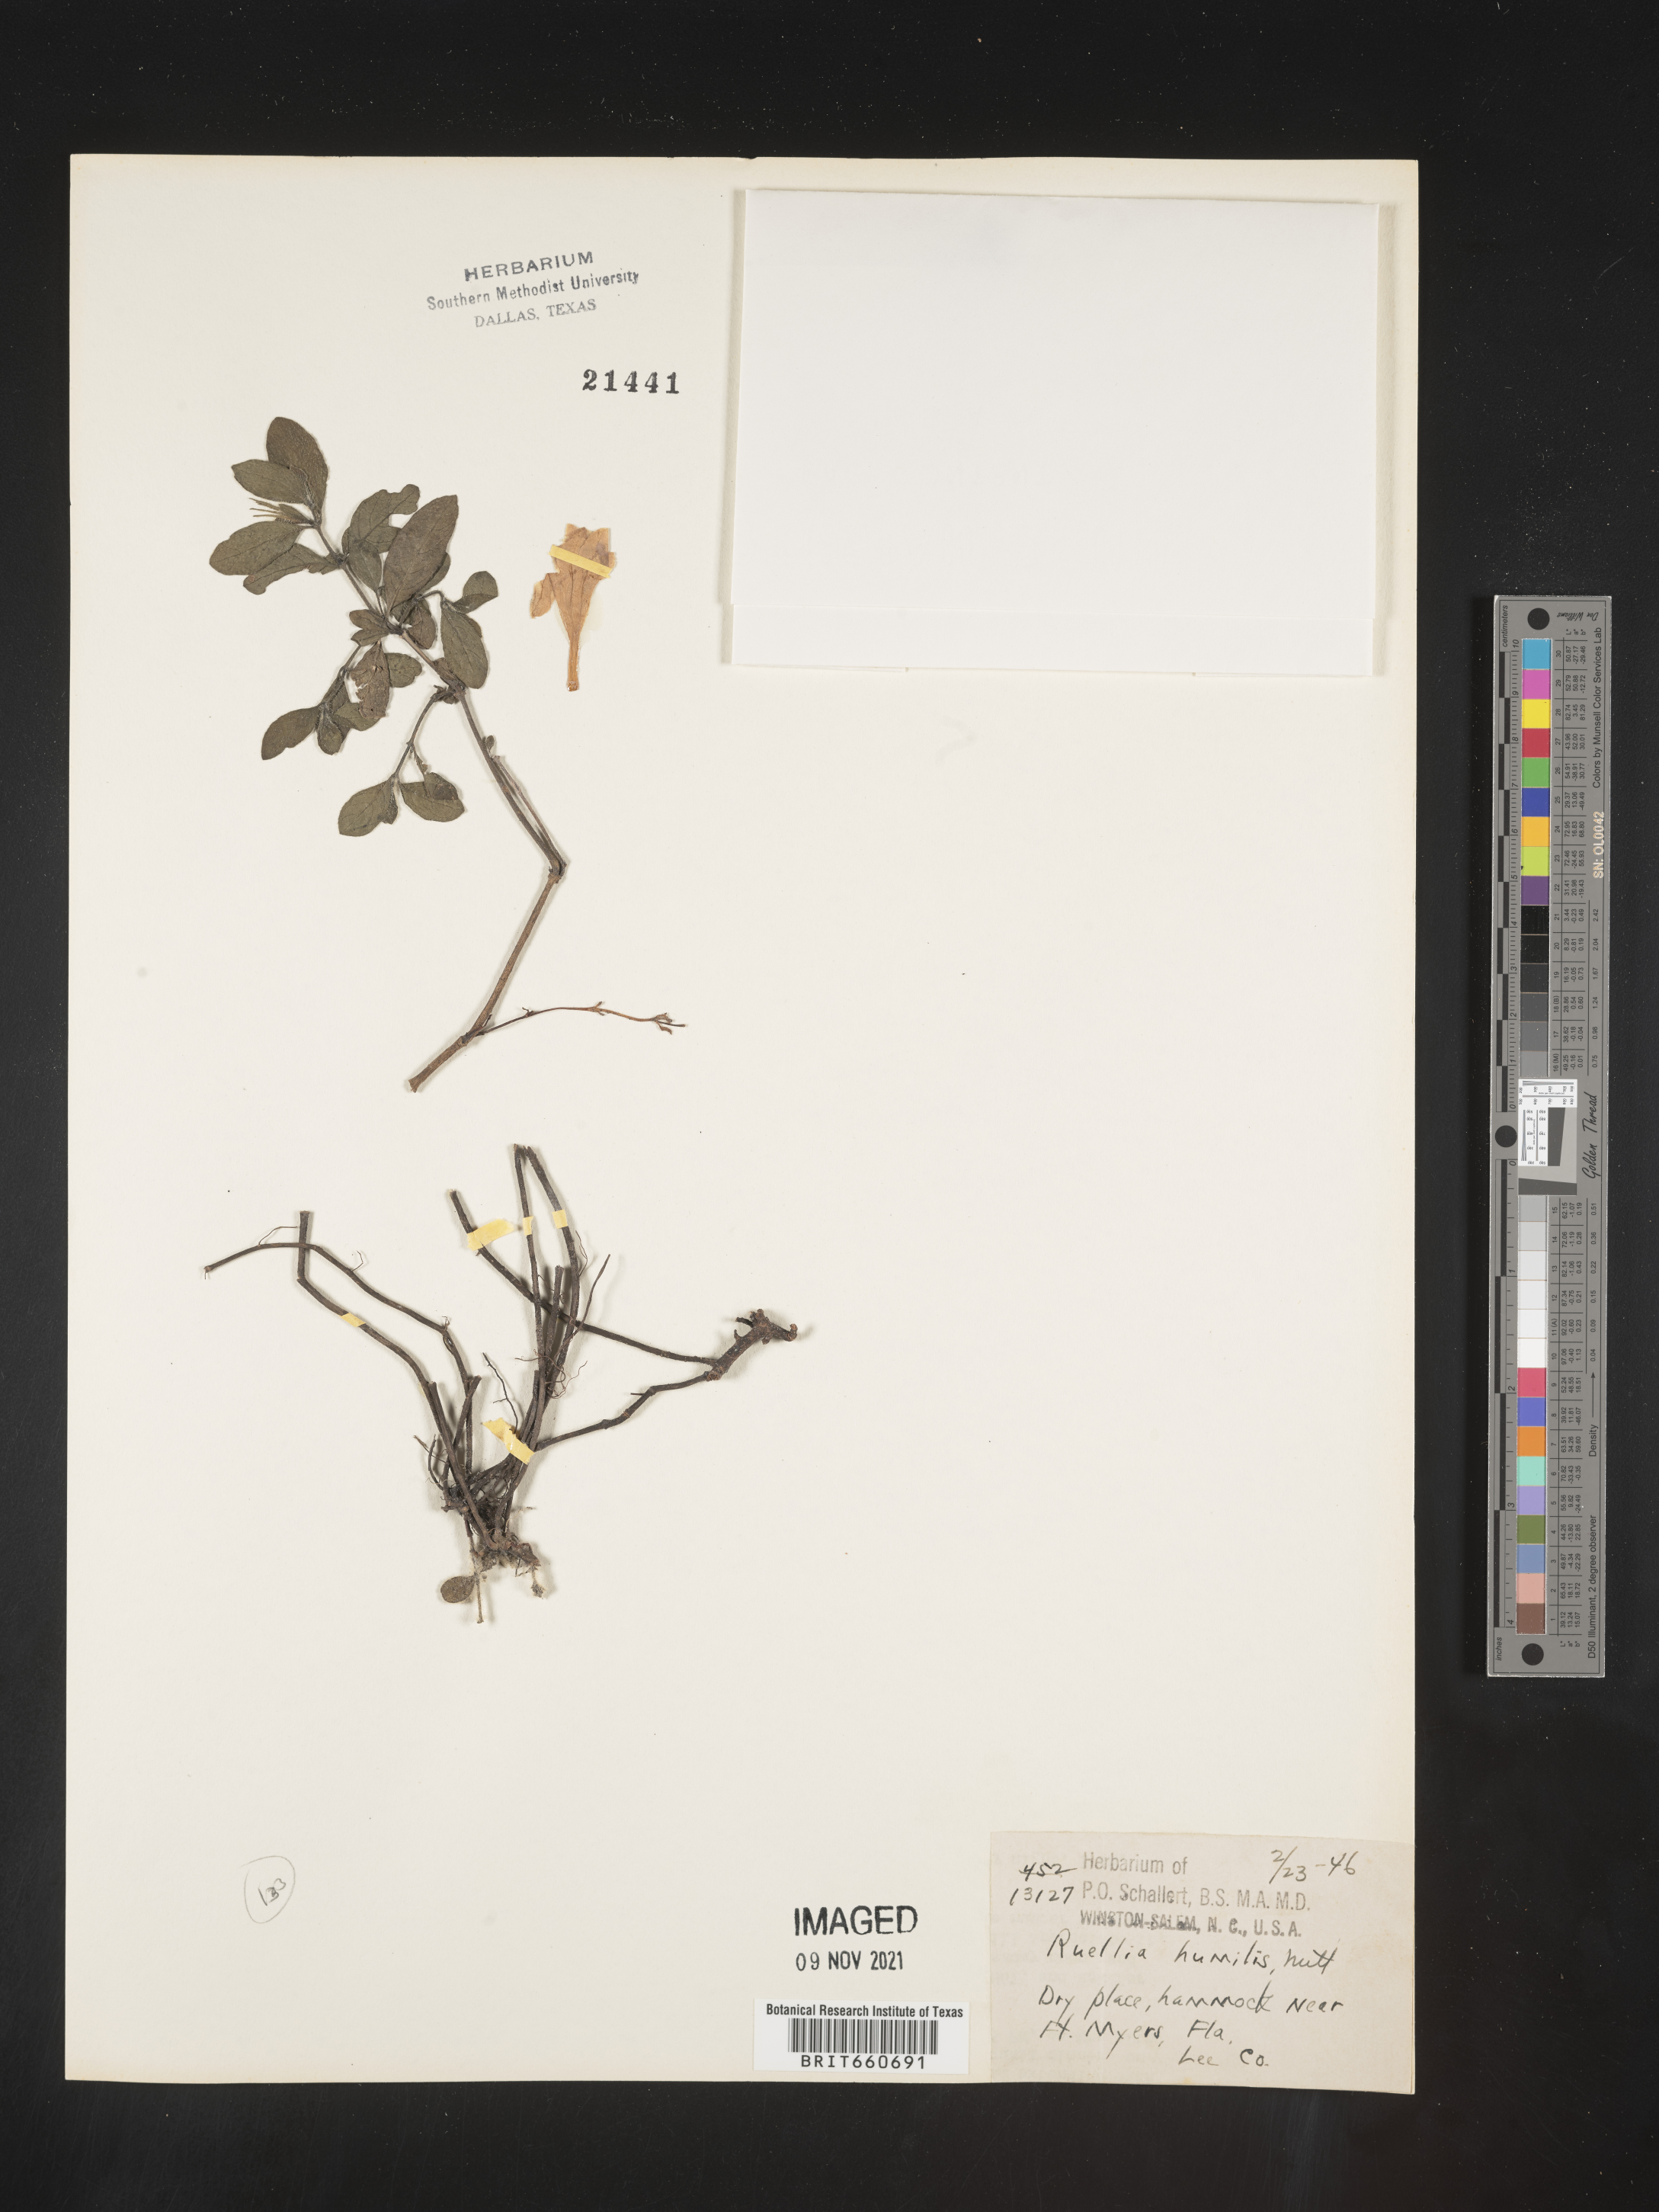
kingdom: Plantae
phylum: Tracheophyta
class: Magnoliopsida
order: Lamiales
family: Acanthaceae
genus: Ruellia
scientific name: Ruellia humilis
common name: Fringe-leaf ruellia
